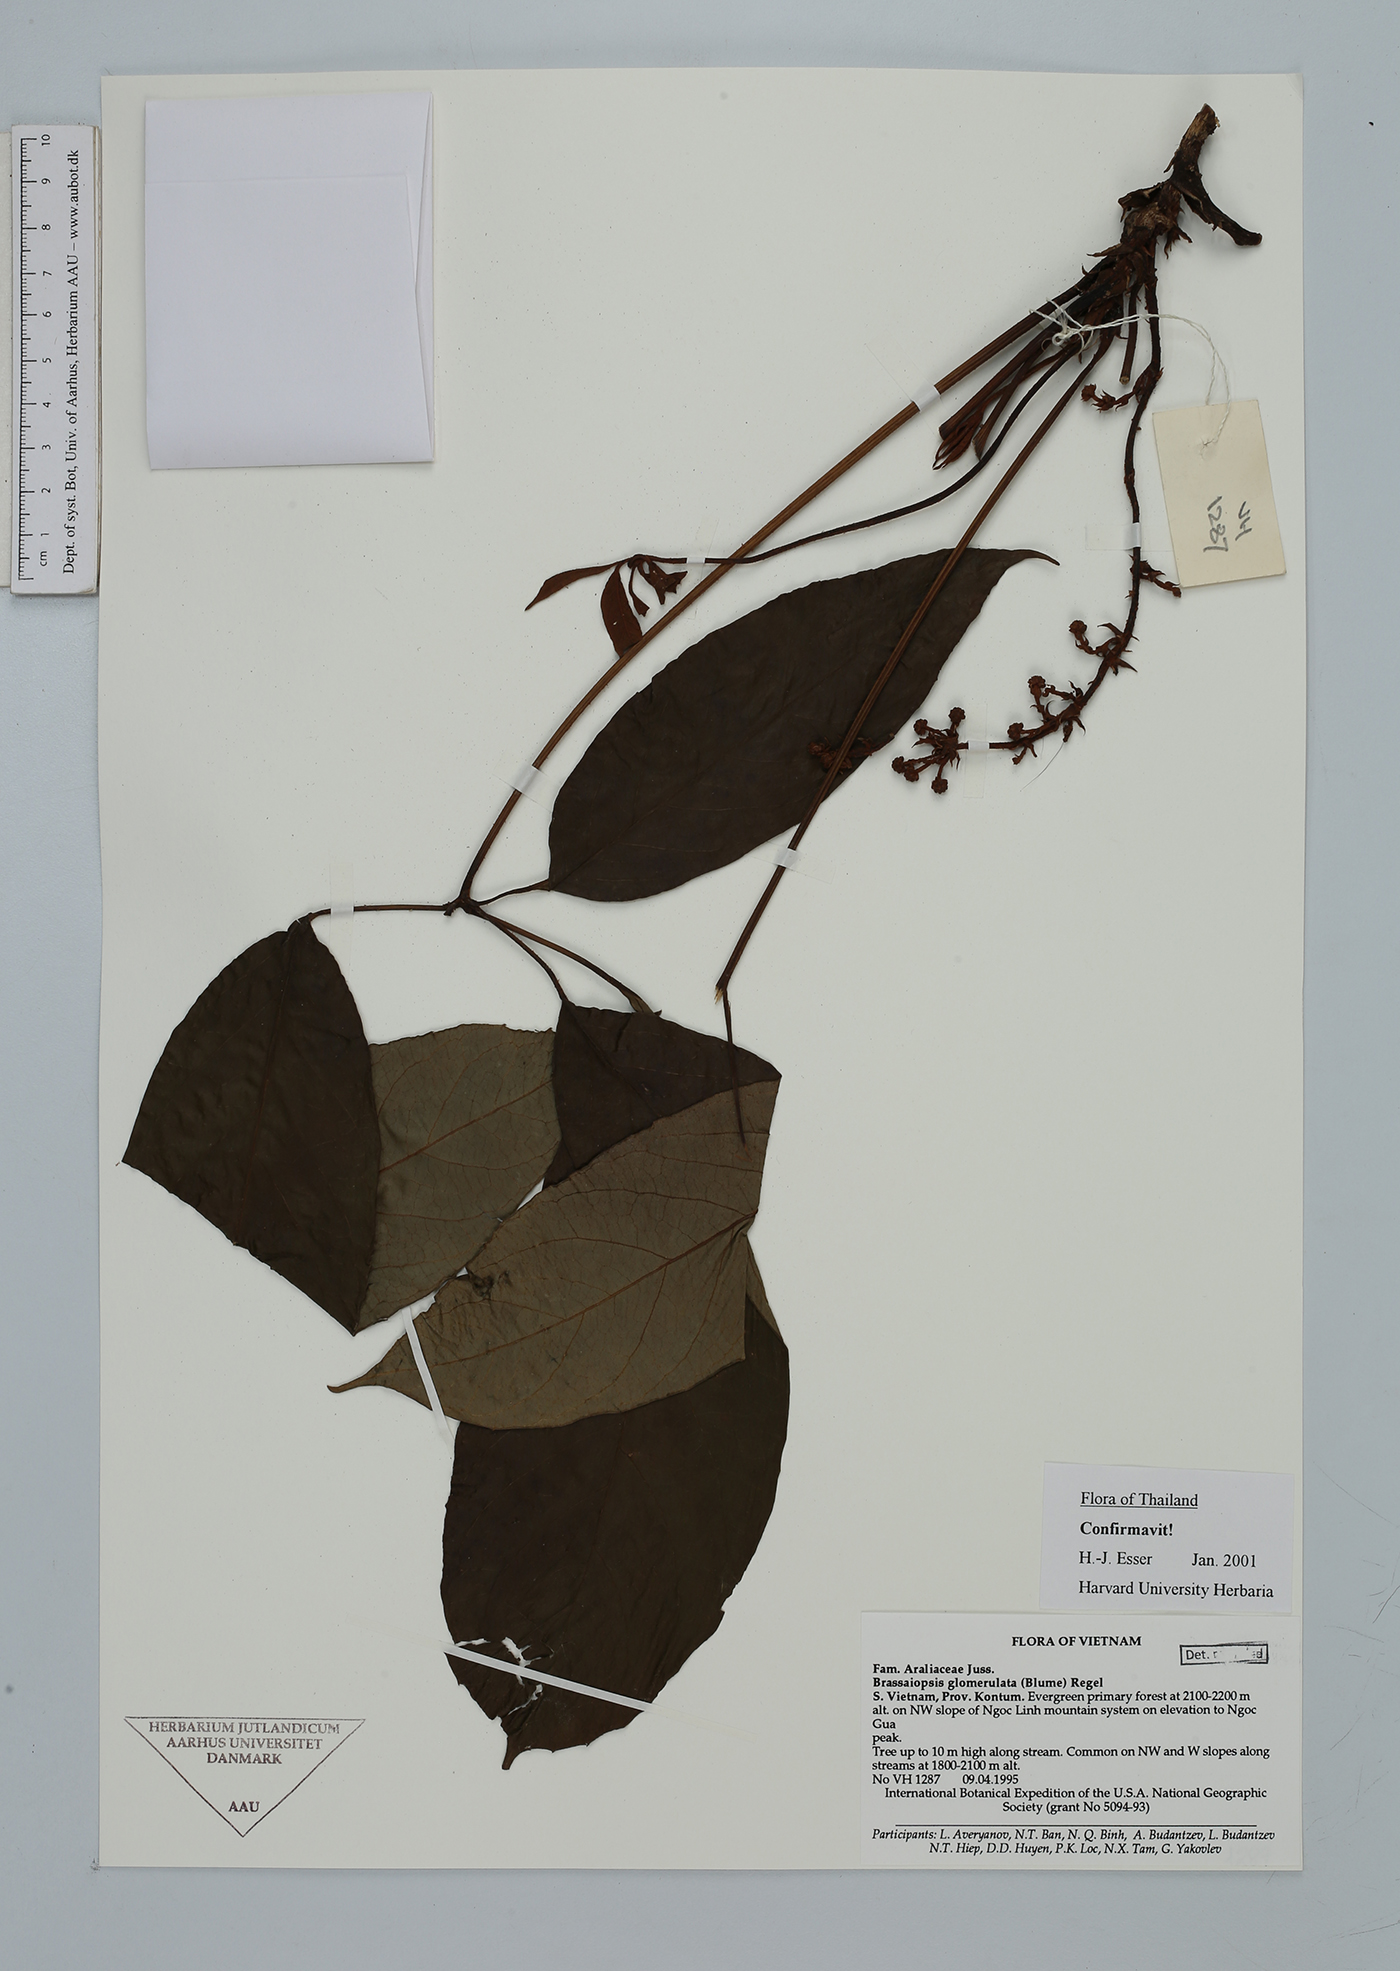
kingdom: Plantae
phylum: Tracheophyta
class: Magnoliopsida
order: Apiales
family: Araliaceae
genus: Brassaiopsis
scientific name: Brassaiopsis glomerulata
